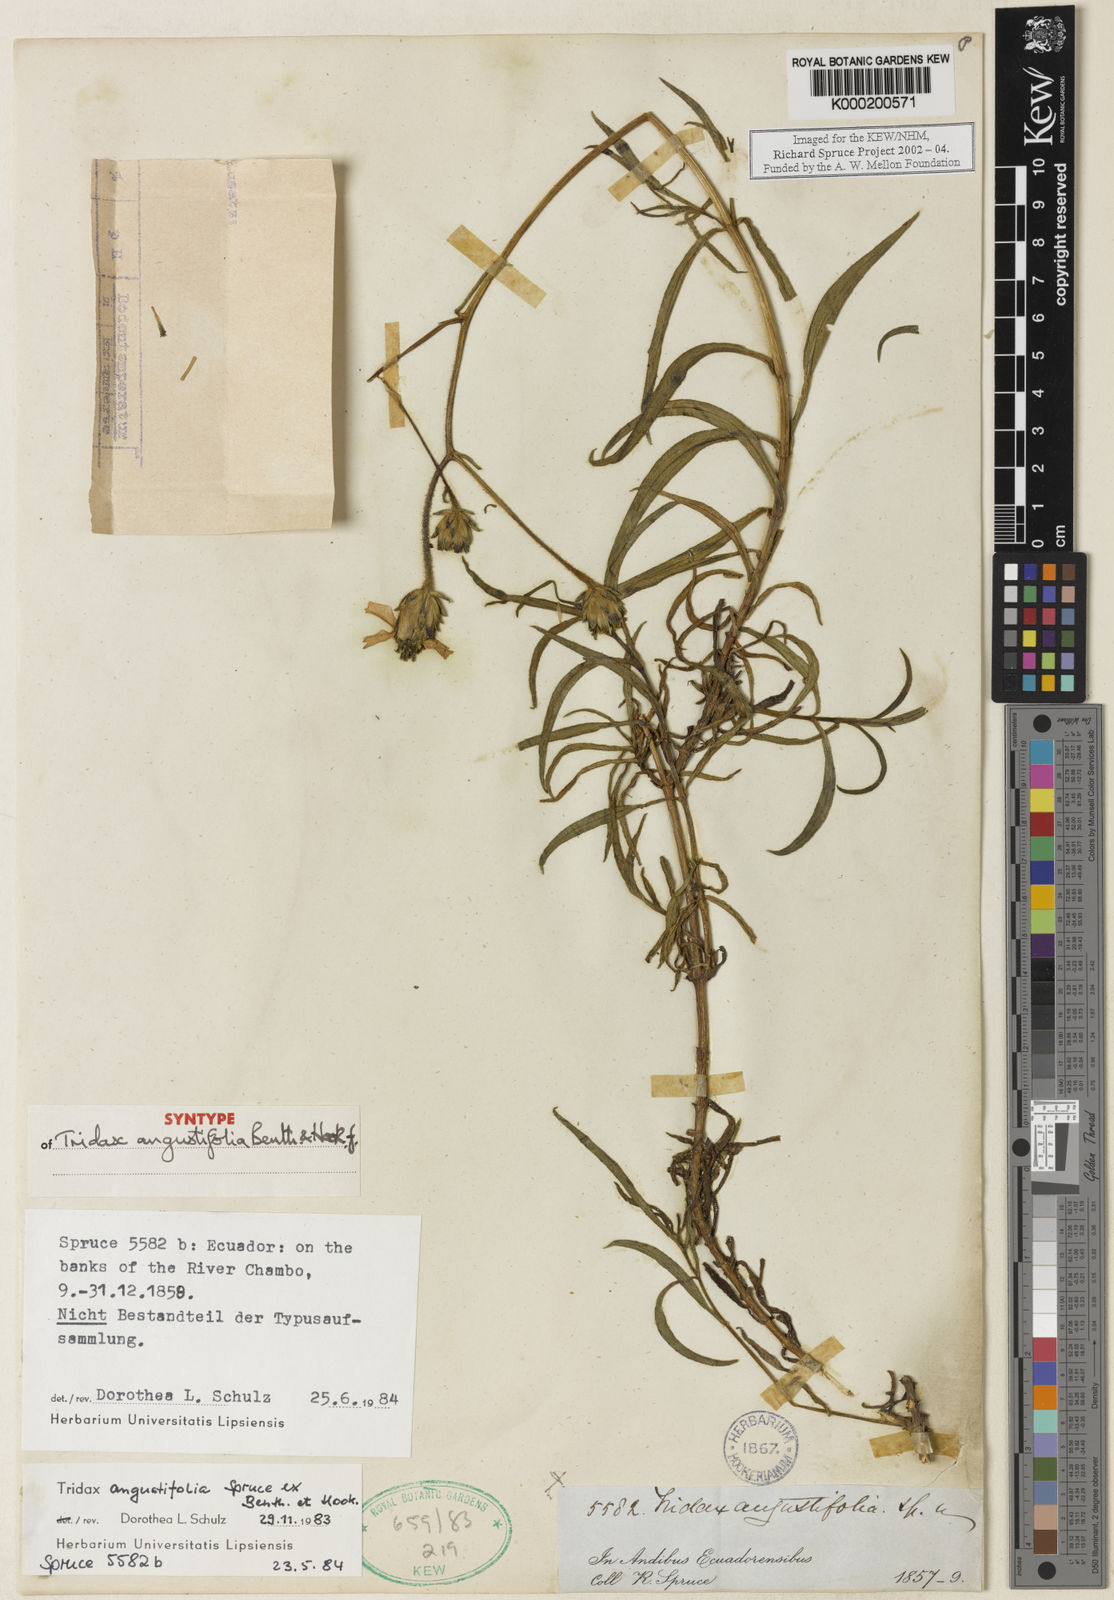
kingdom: Plantae
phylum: Tracheophyta
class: Magnoliopsida
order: Asterales
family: Asteraceae
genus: Tridax
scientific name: Tridax angustifolia
